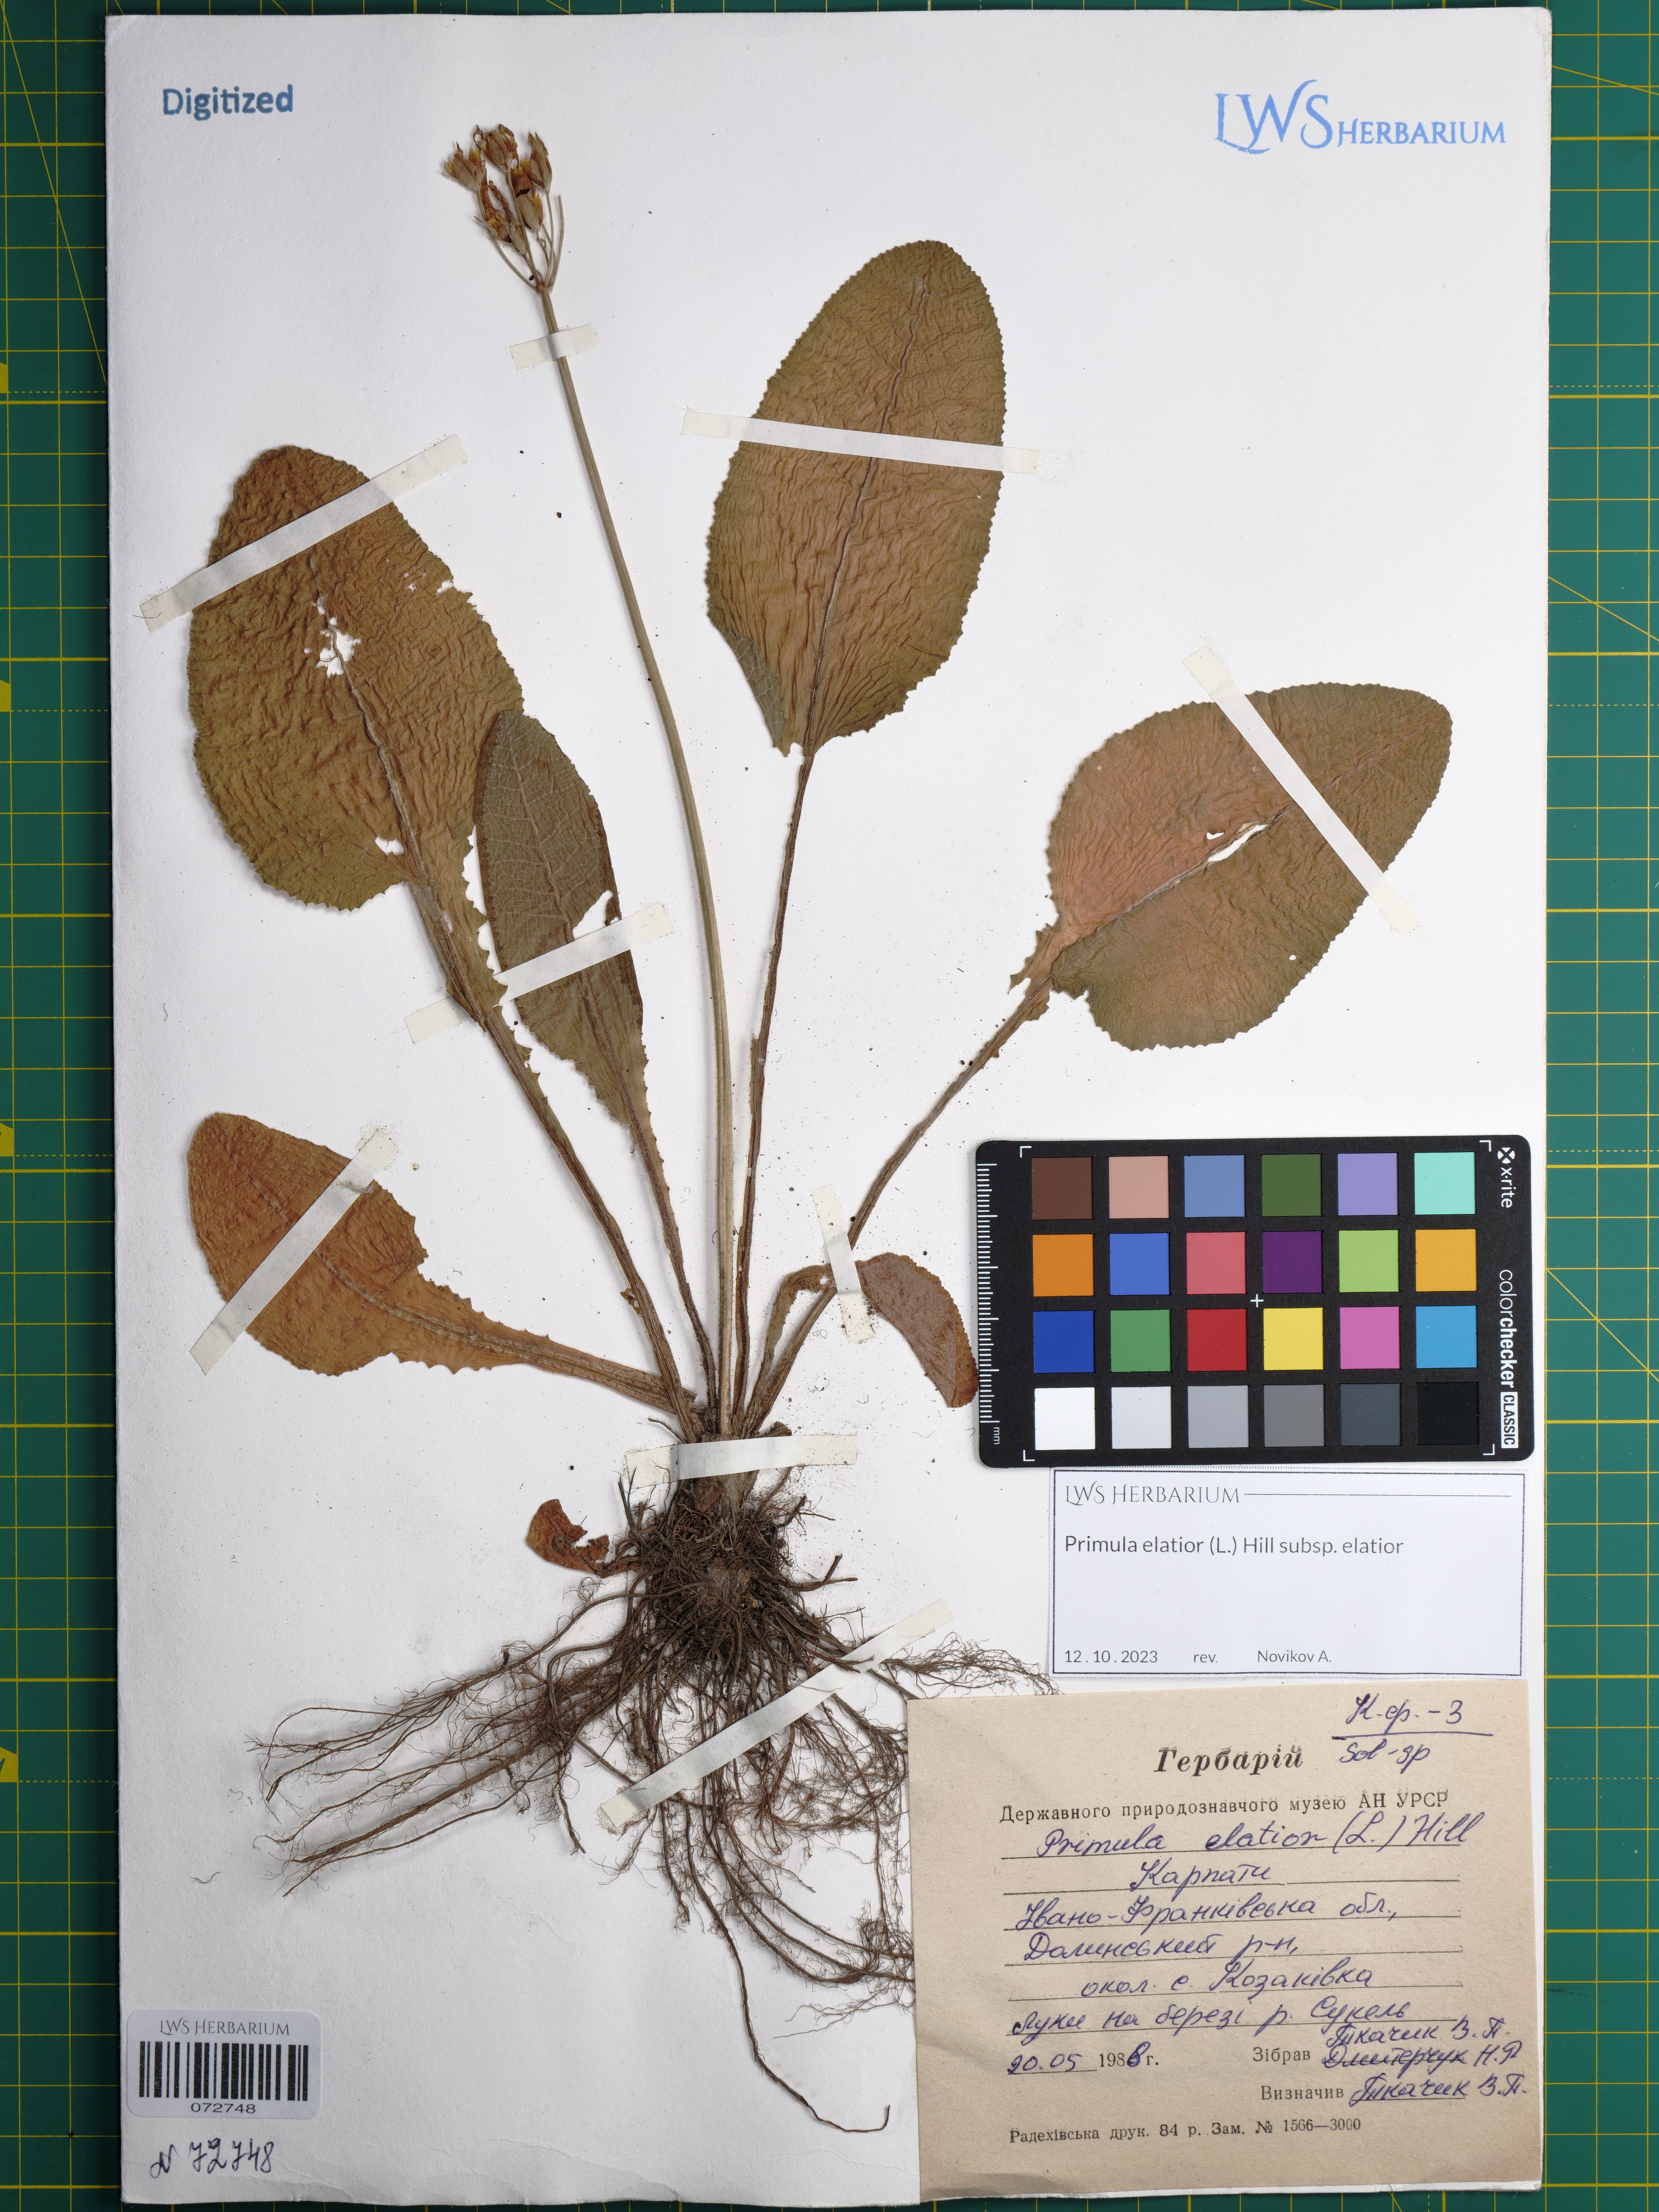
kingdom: Plantae
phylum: Tracheophyta
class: Magnoliopsida
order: Ericales
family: Primulaceae
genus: Primula
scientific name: Primula elatior
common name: Oxlip
